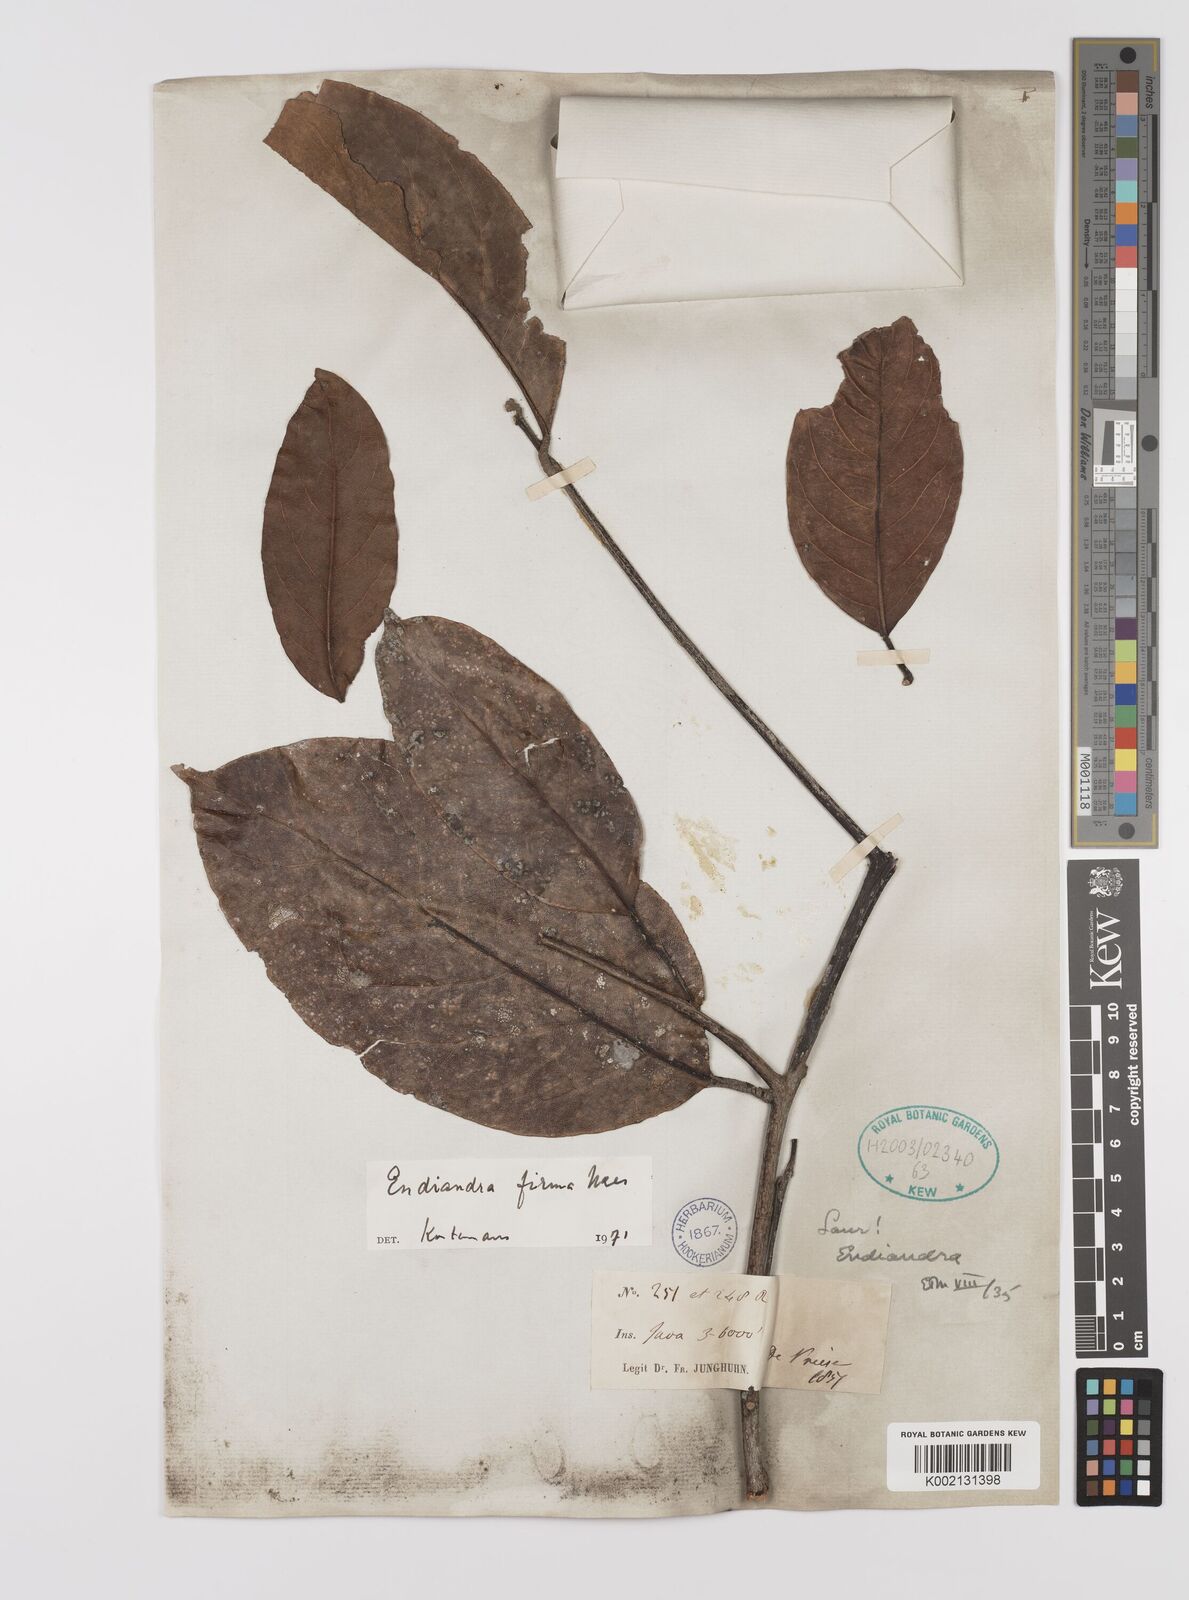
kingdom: Plantae
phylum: Tracheophyta
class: Magnoliopsida
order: Laurales
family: Lauraceae
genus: Endiandra
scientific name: Endiandra firma
